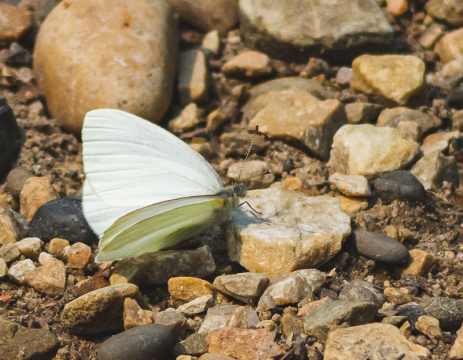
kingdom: Animalia
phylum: Arthropoda
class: Insecta
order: Lepidoptera
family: Pieridae
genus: Pieris
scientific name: Pieris oleracea
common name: Mustard White
